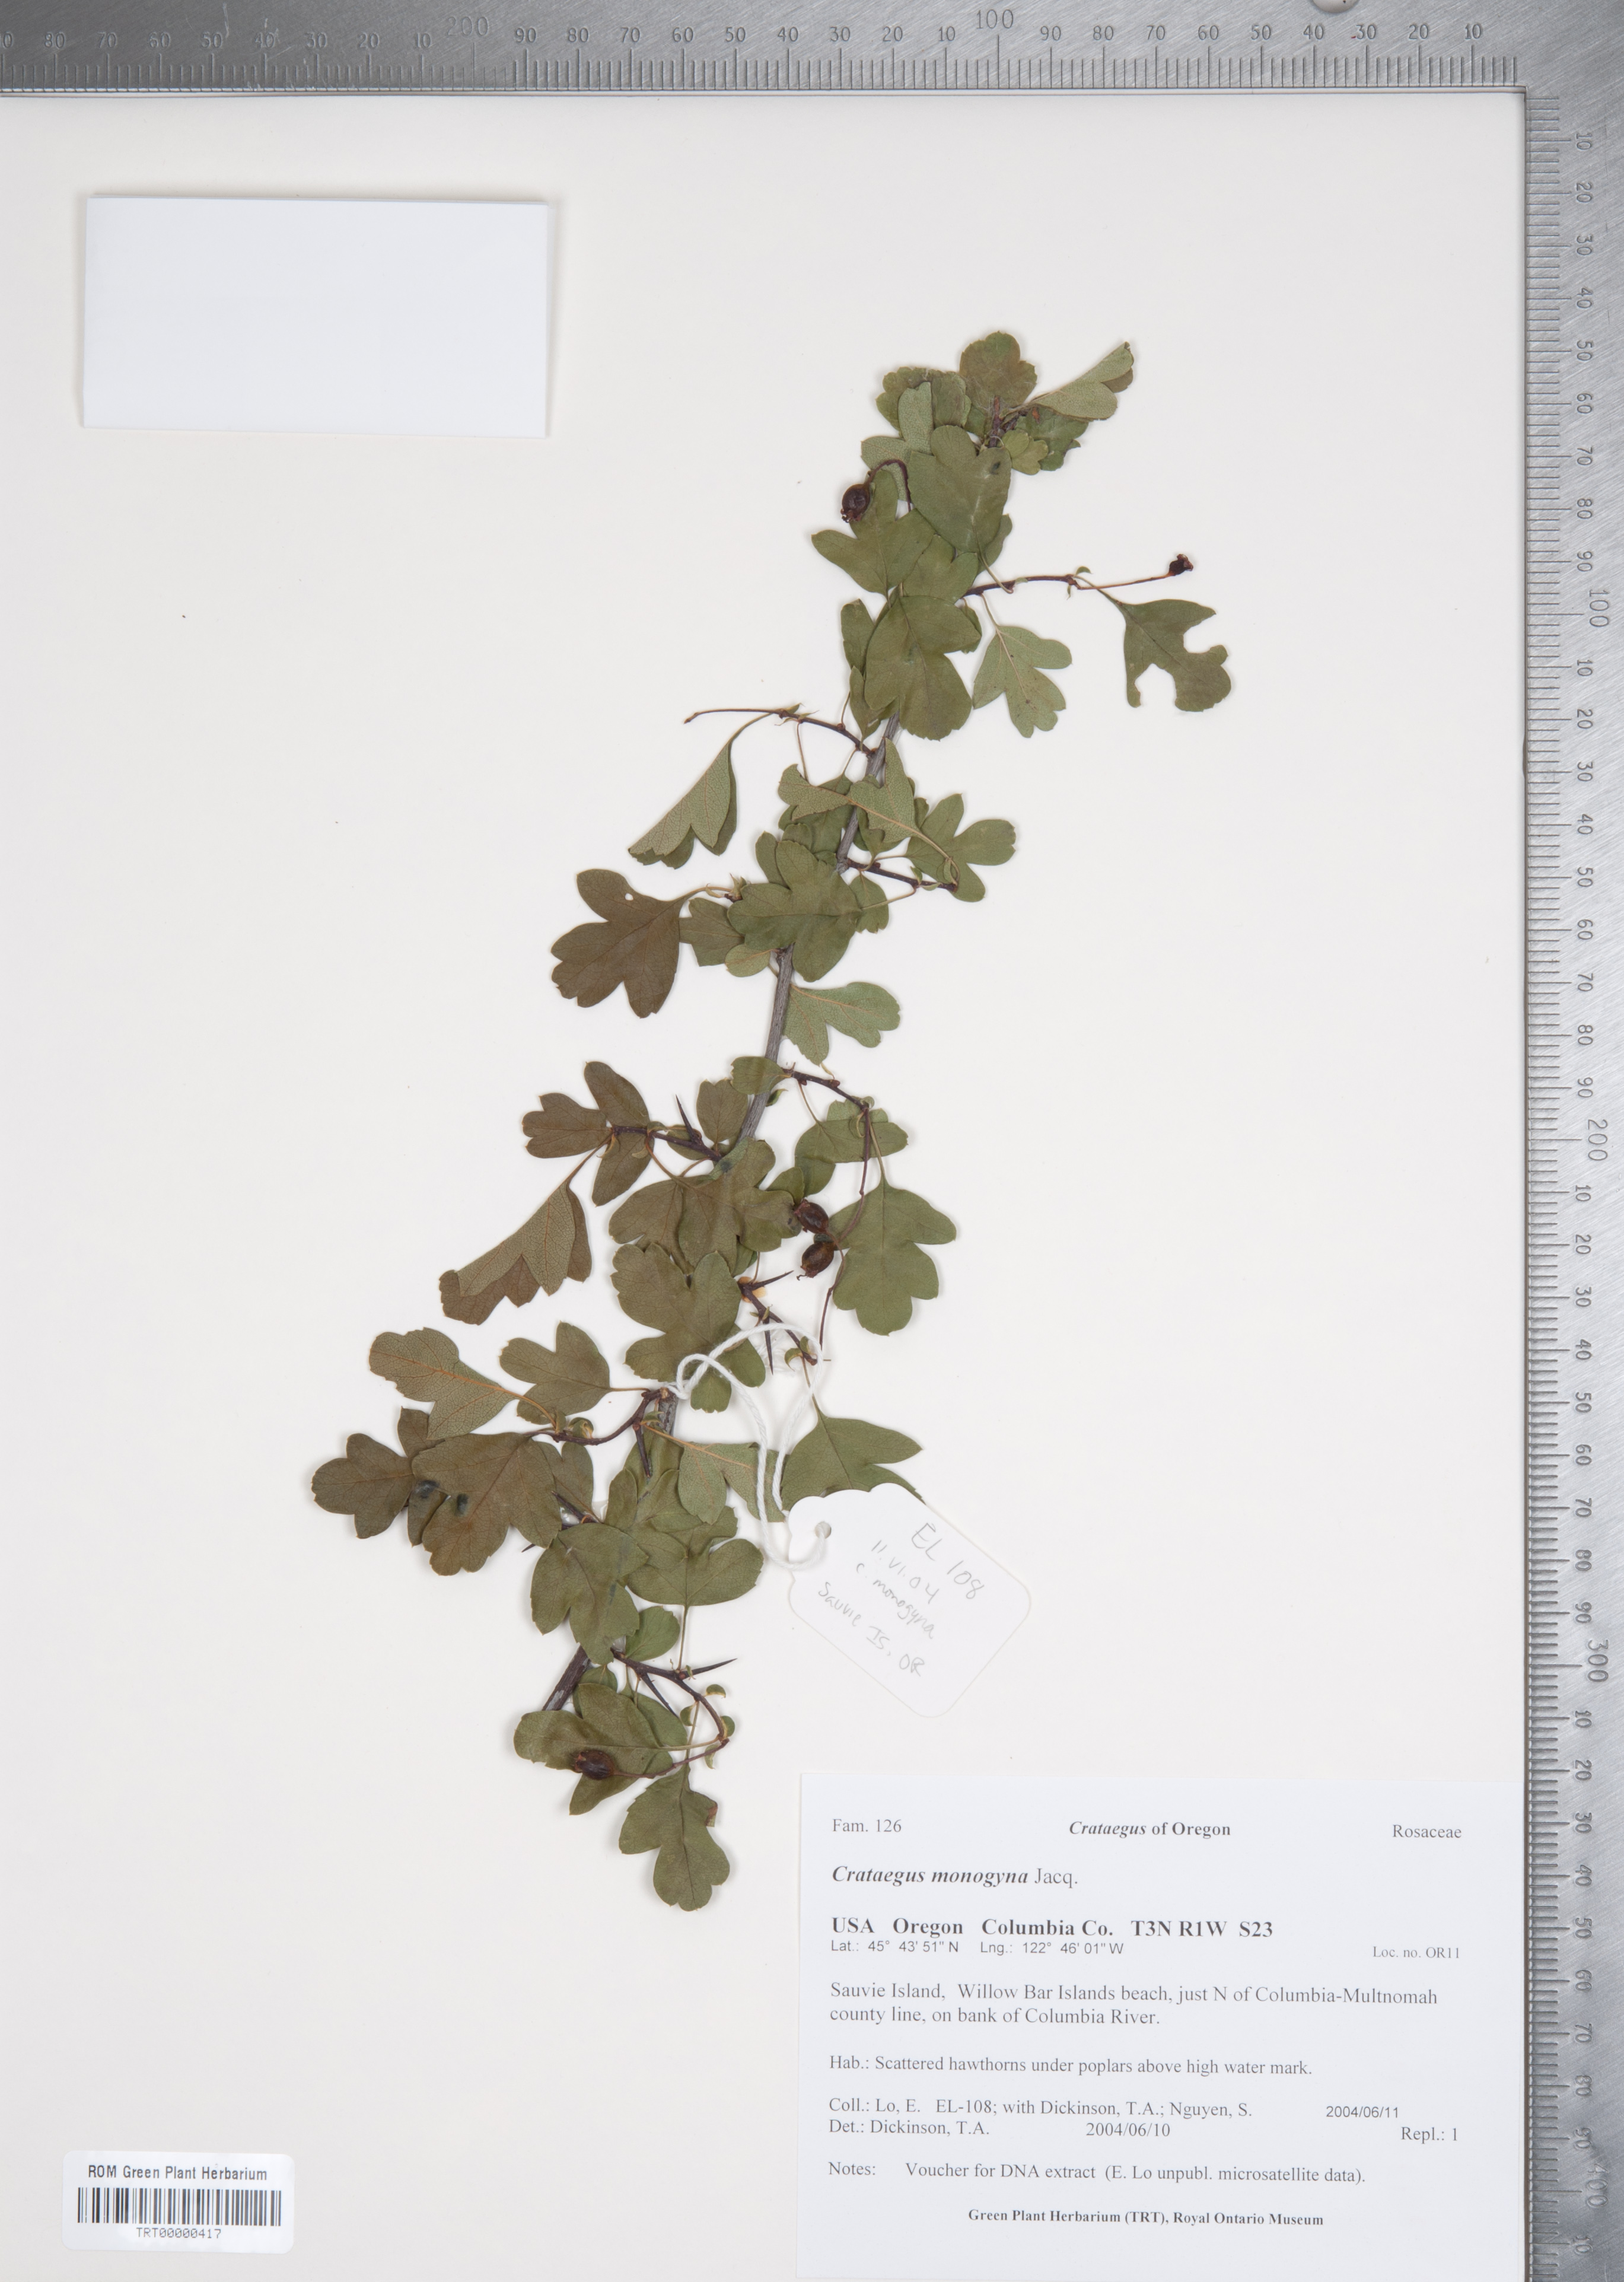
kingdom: Plantae
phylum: Tracheophyta
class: Magnoliopsida
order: Rosales
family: Rosaceae
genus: Crataegus
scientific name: Crataegus monogyna
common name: Hawthorn
